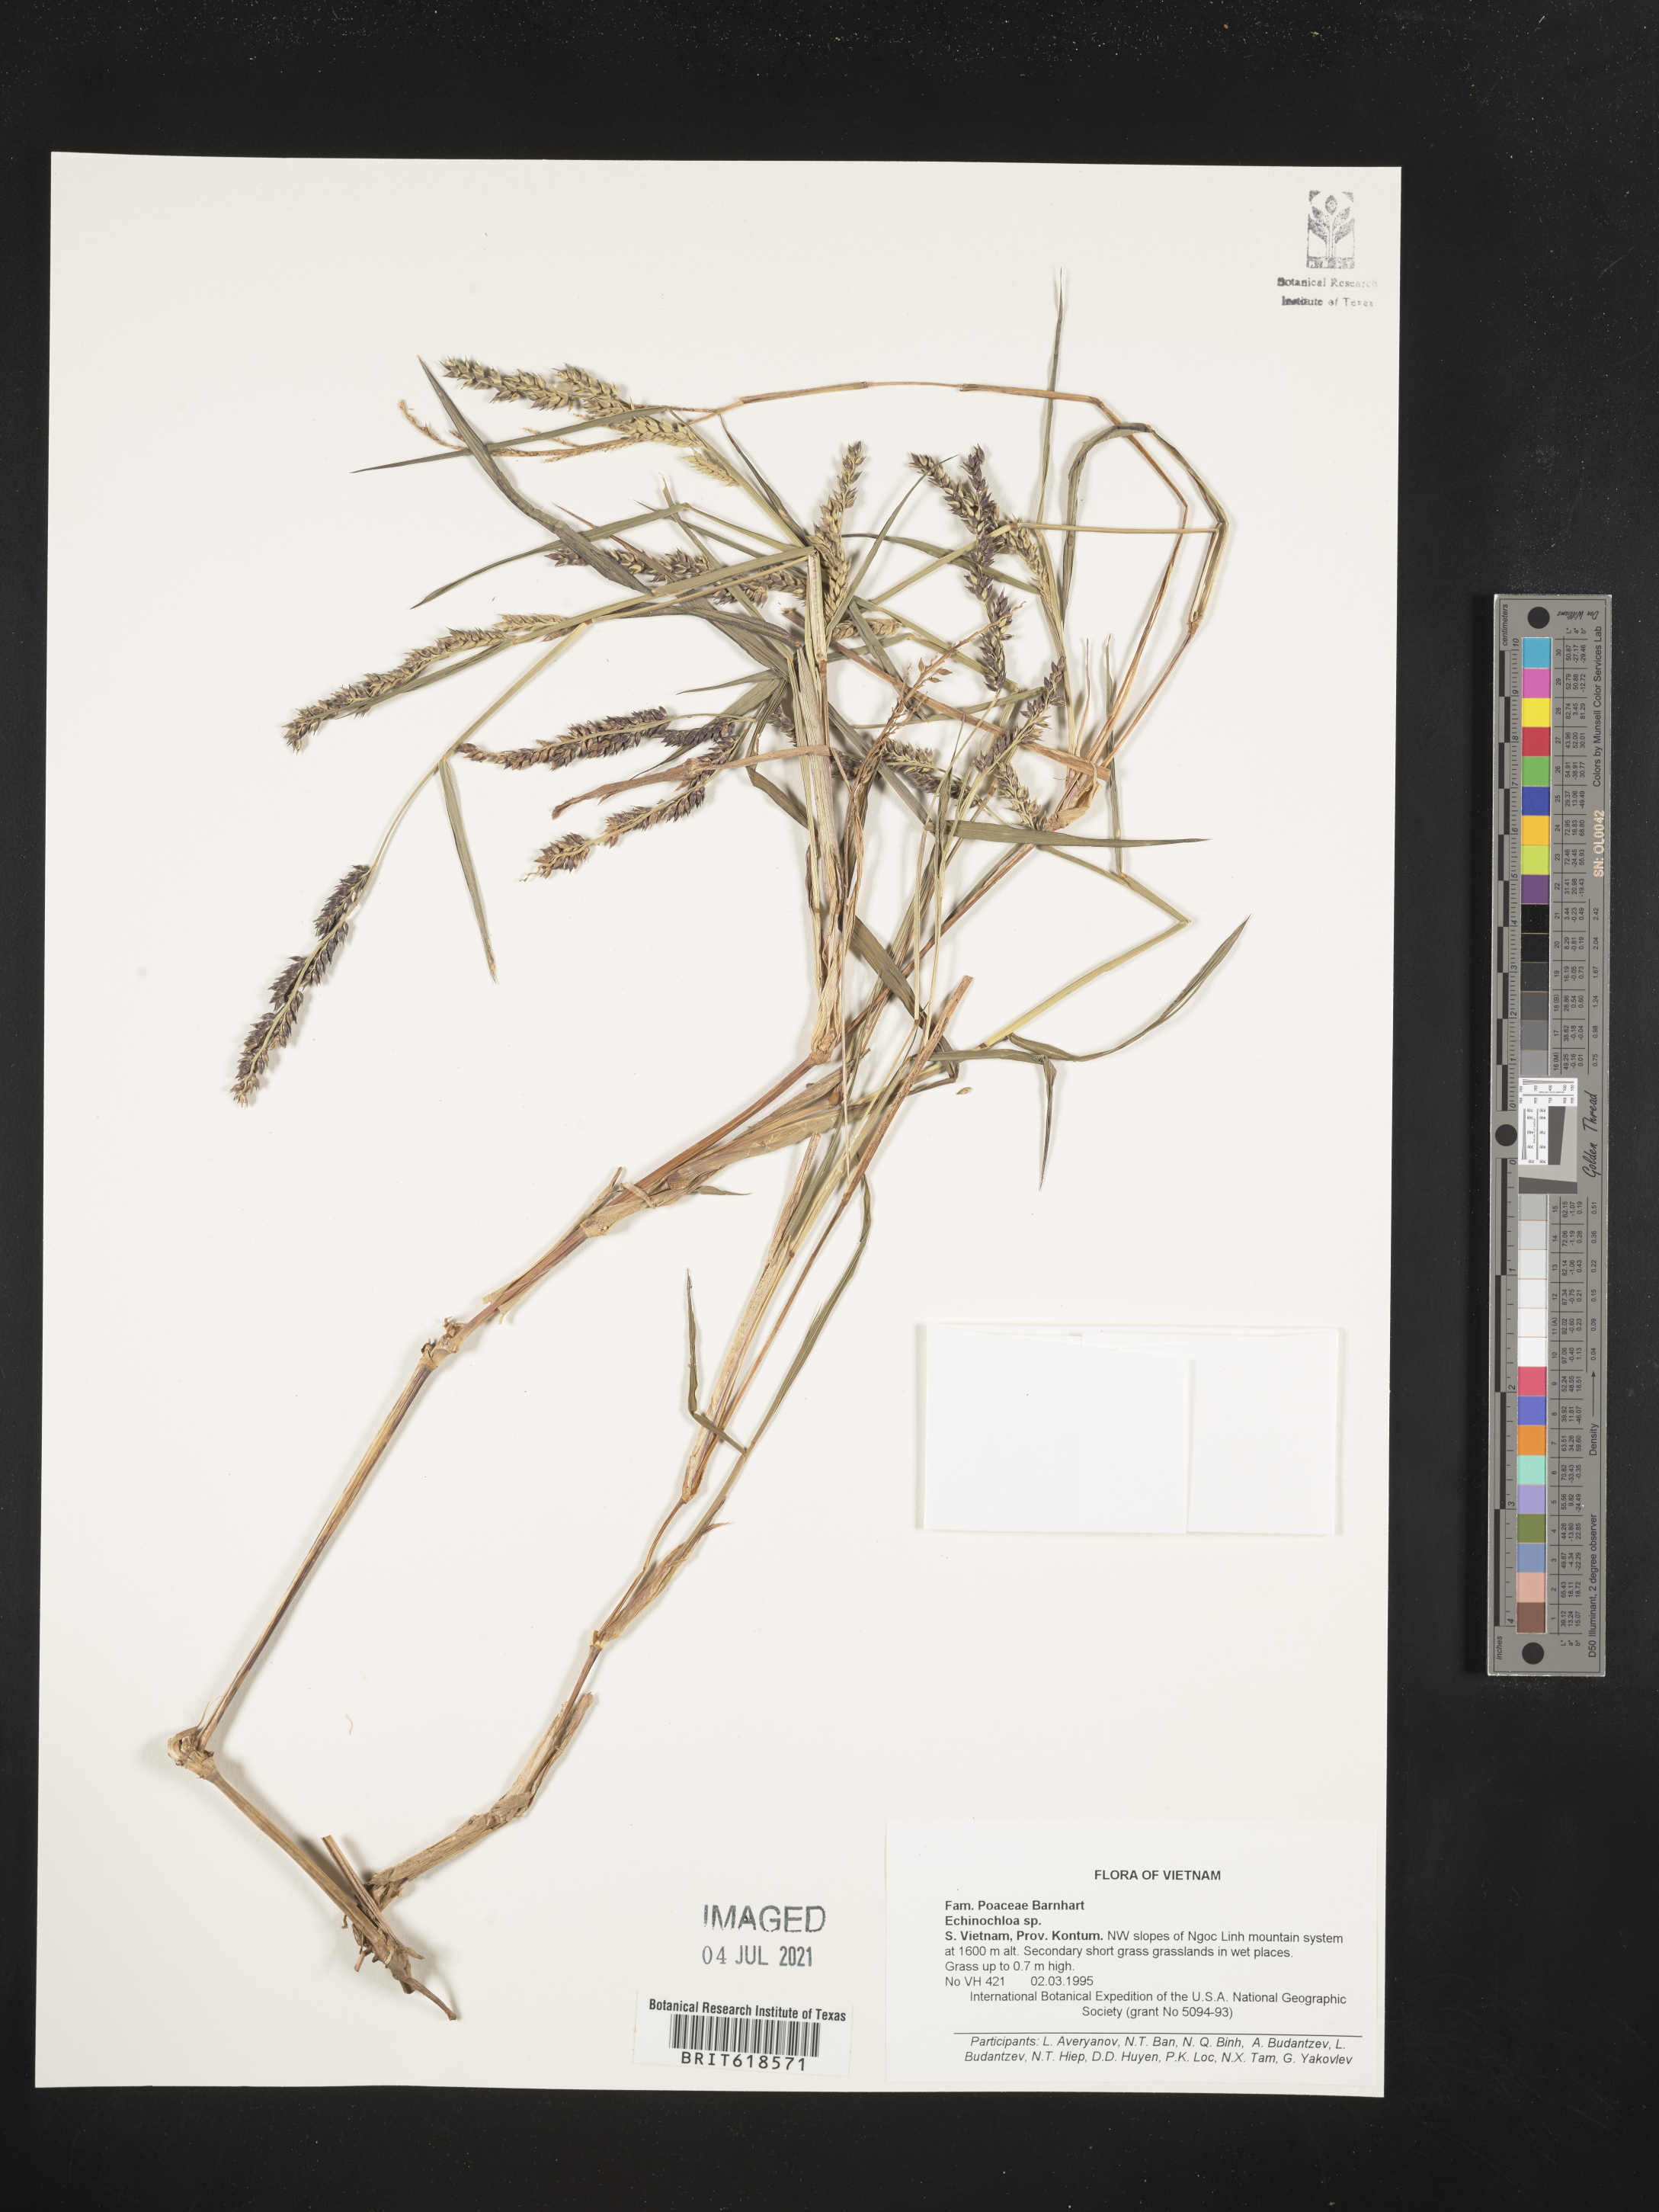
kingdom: Plantae
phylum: Tracheophyta
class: Liliopsida
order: Poales
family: Poaceae
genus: Echinochloa
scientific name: Echinochloa
